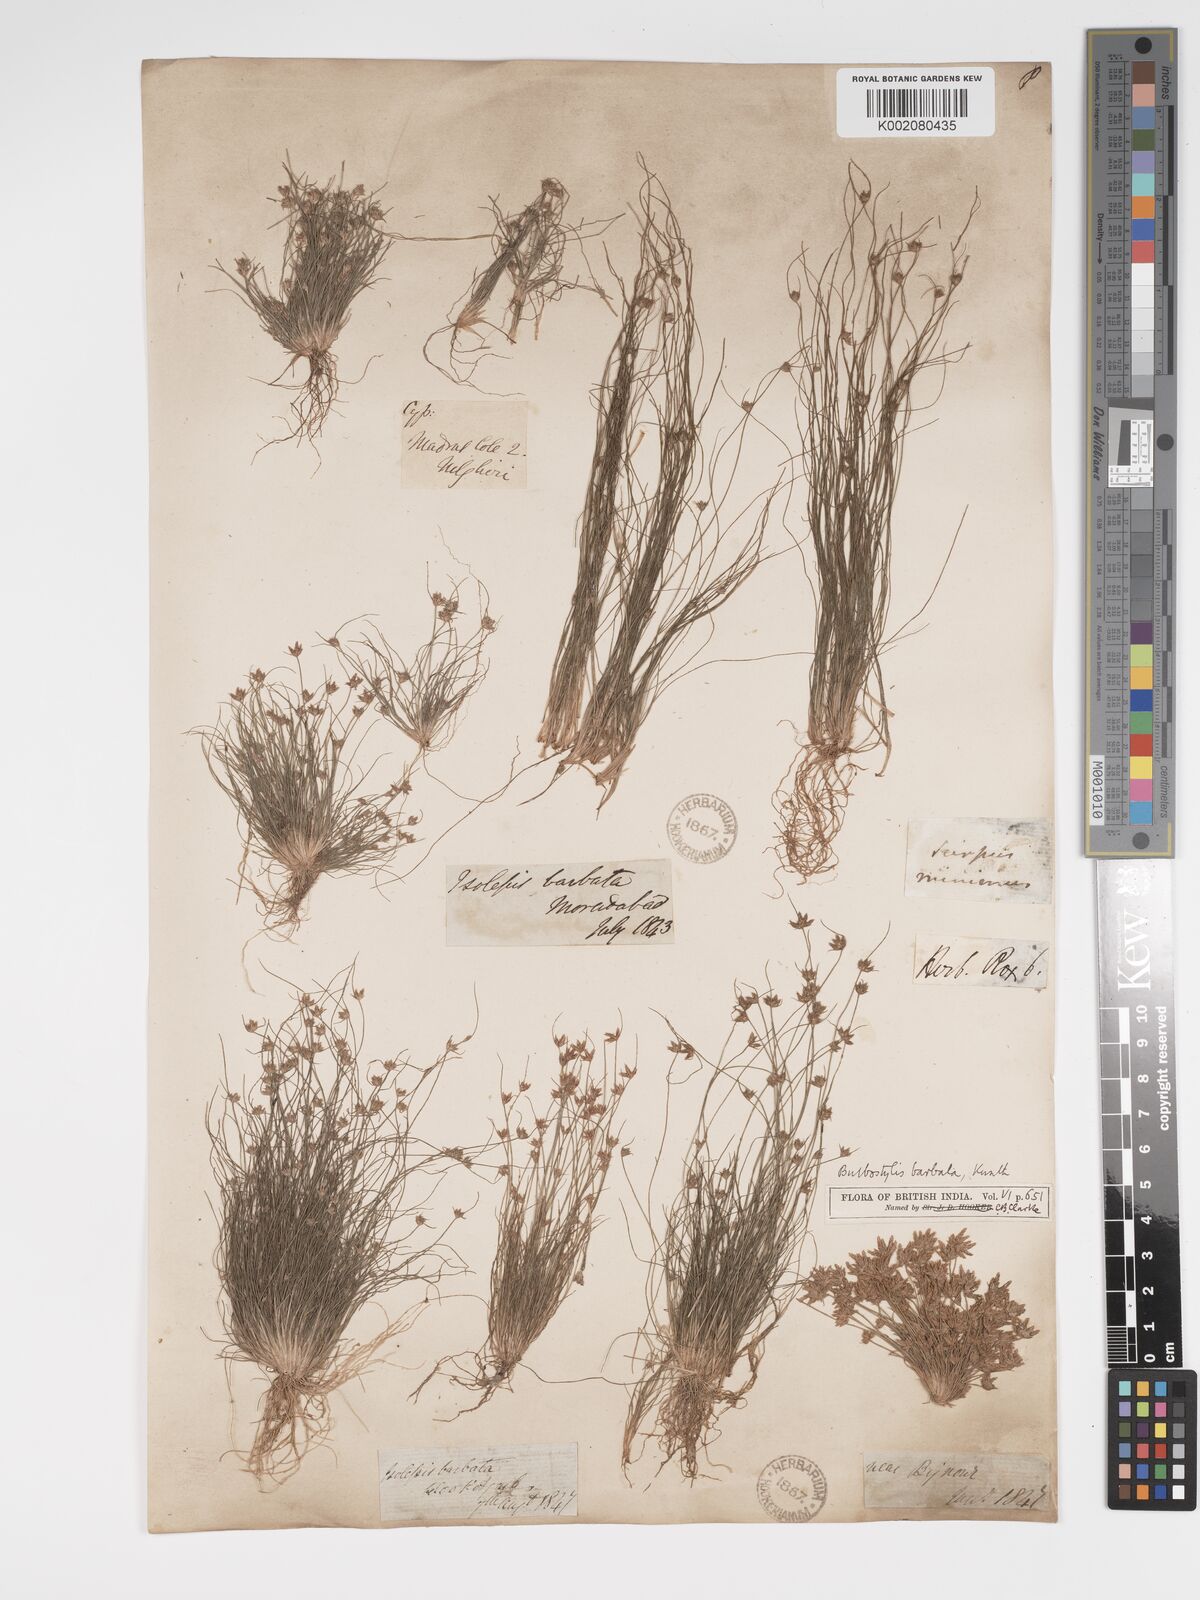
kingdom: Plantae
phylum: Tracheophyta
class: Liliopsida
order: Poales
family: Cyperaceae
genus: Bulbostylis
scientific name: Bulbostylis barbata
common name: Watergrass
